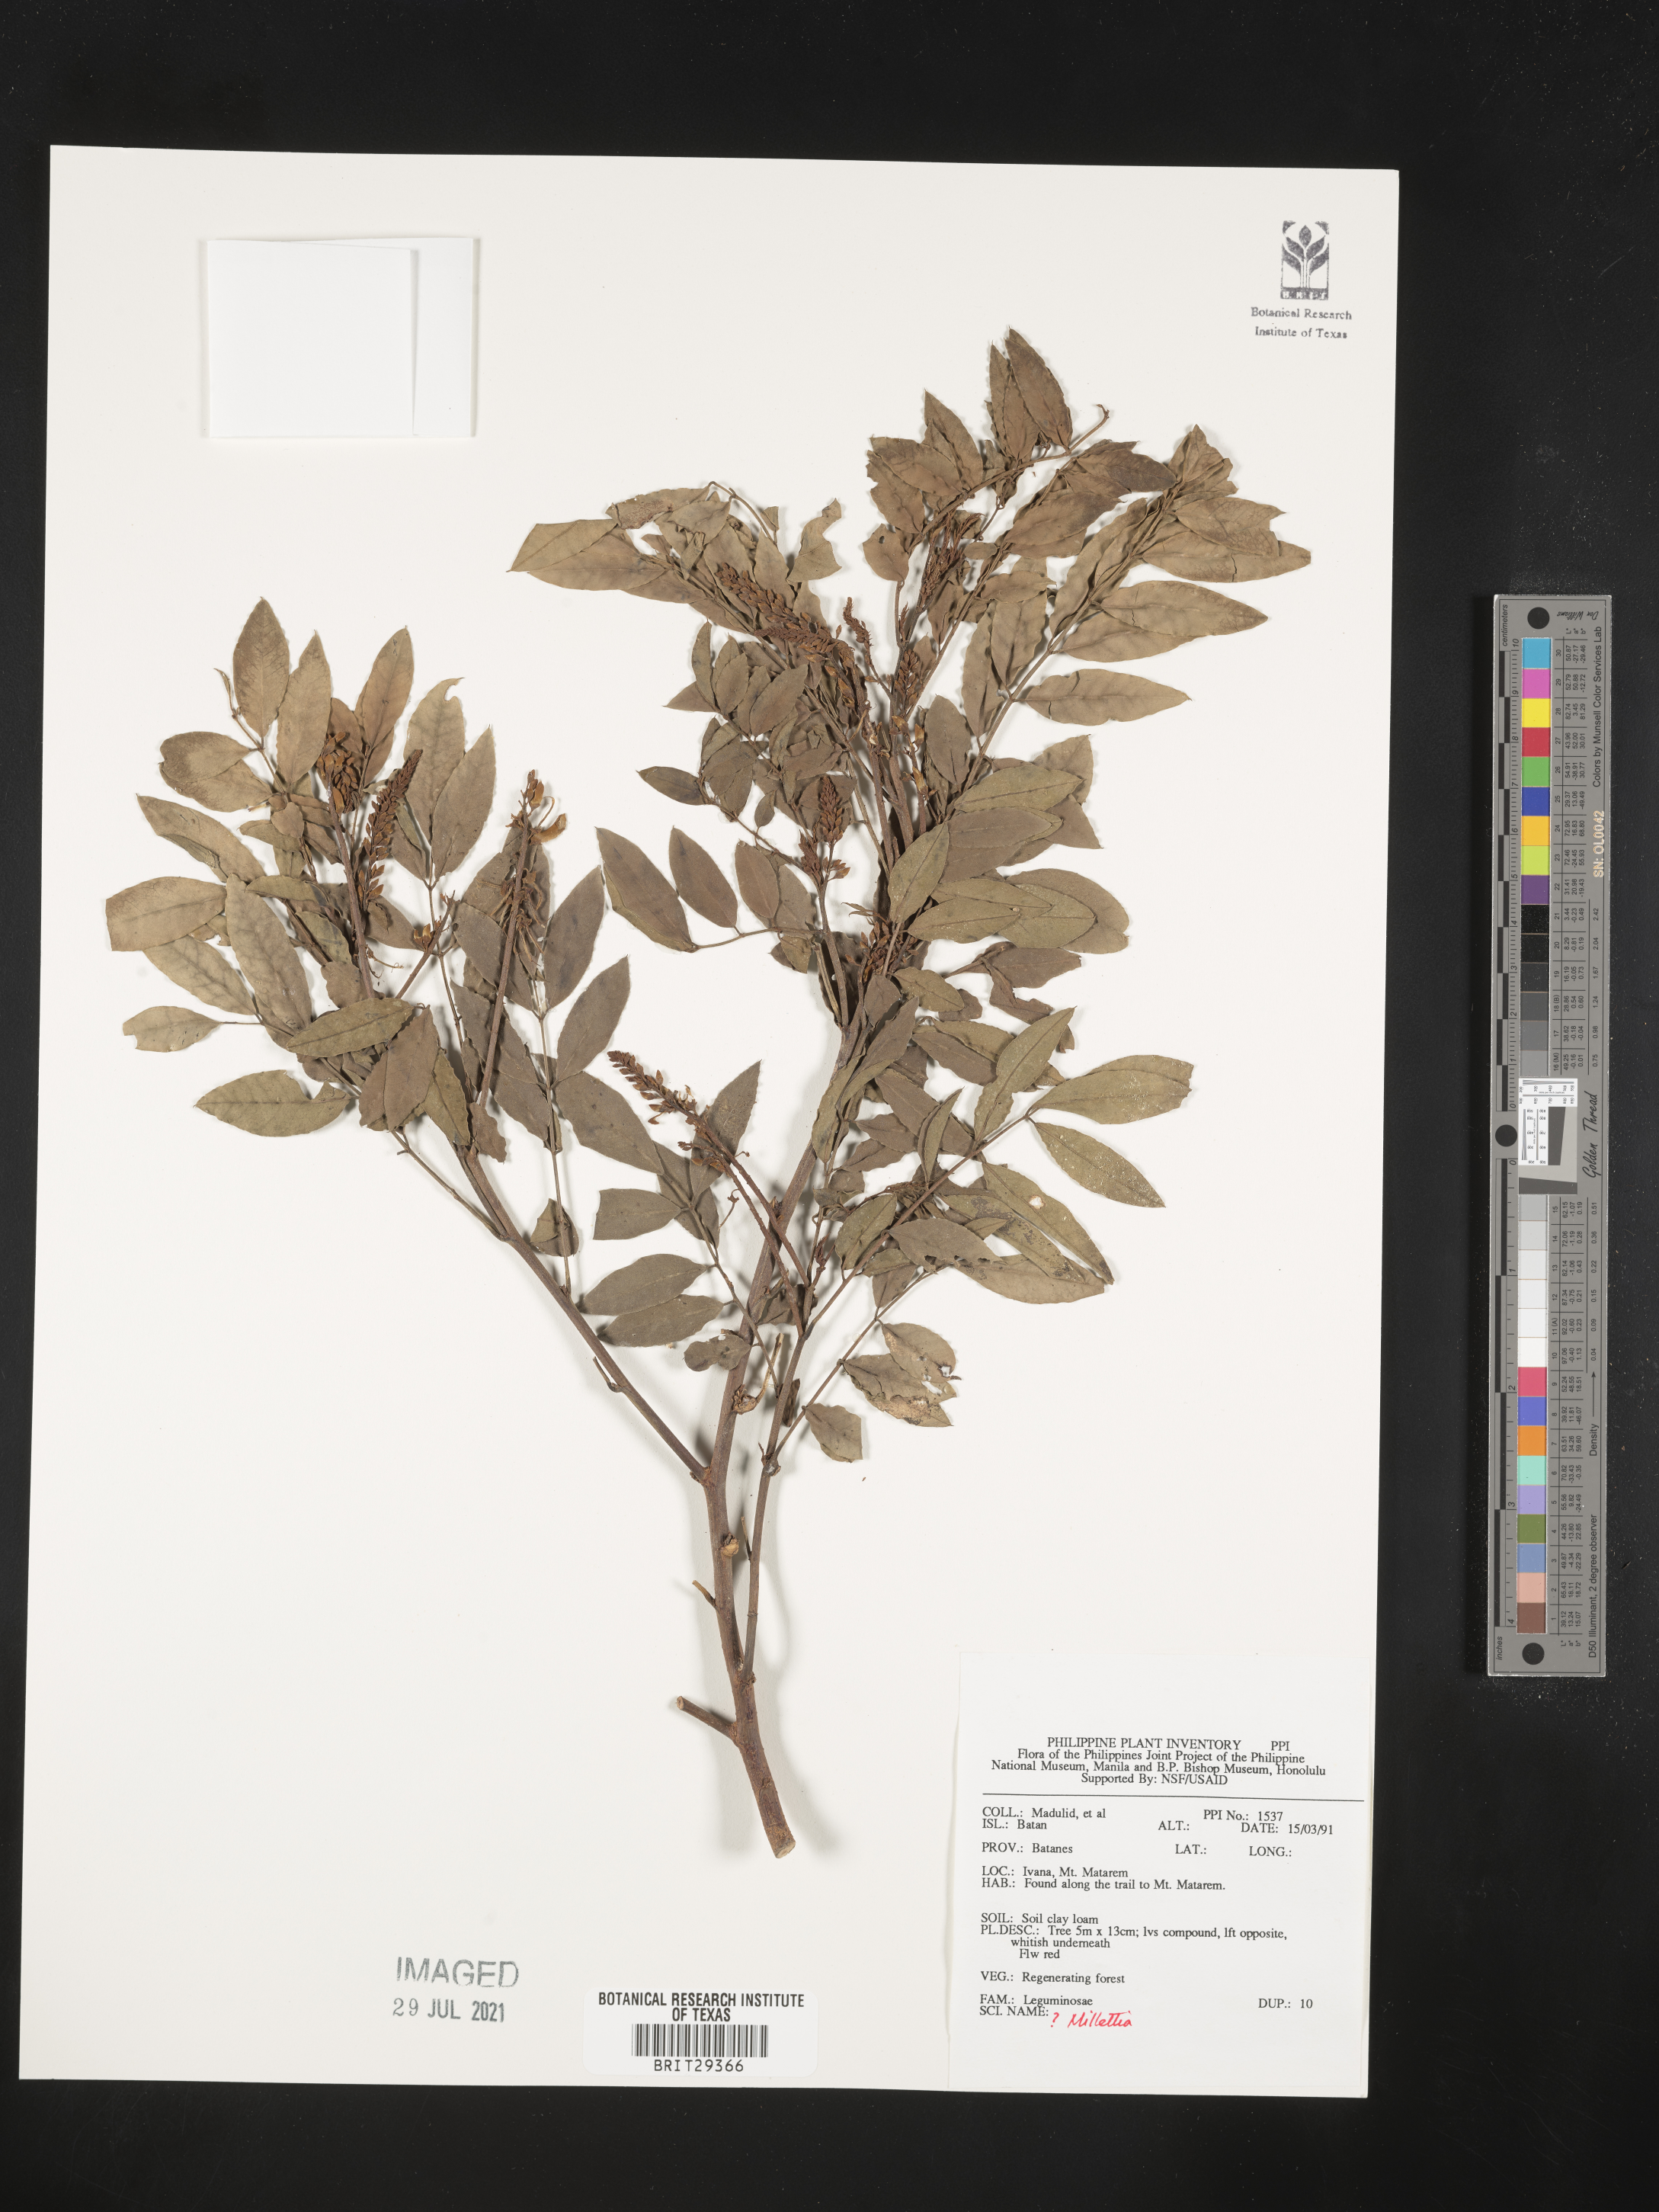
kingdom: Plantae
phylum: Tracheophyta
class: Magnoliopsida
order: Fabales
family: Fabaceae
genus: Millettia
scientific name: Millettia
